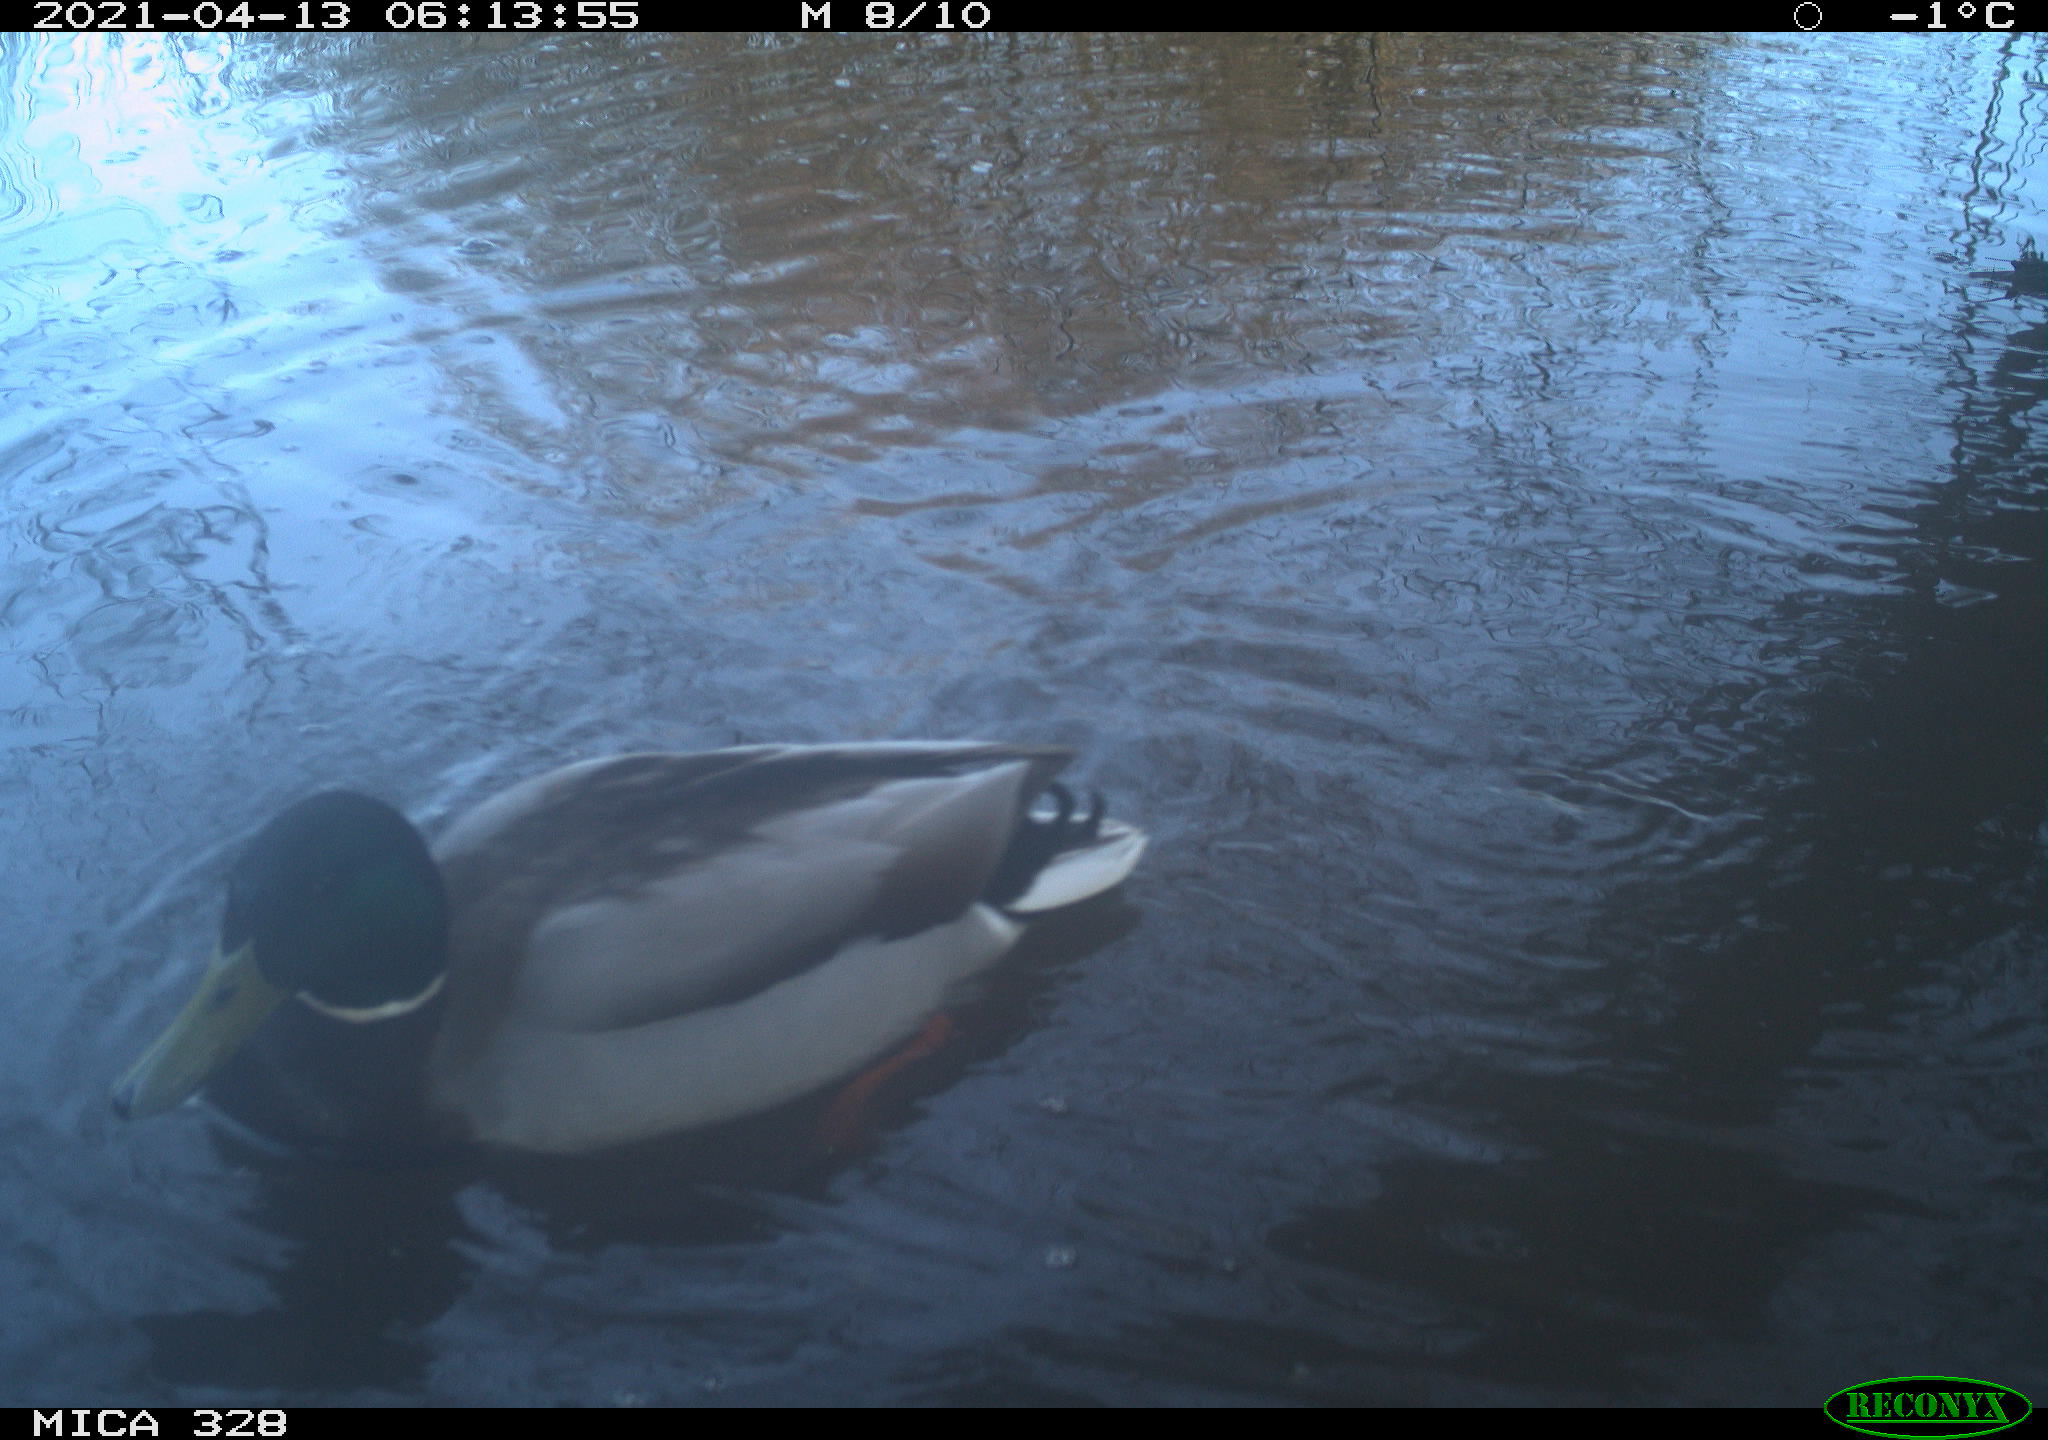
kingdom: Animalia
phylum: Chordata
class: Aves
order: Anseriformes
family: Anatidae
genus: Anas
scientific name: Anas platyrhynchos
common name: Mallard
